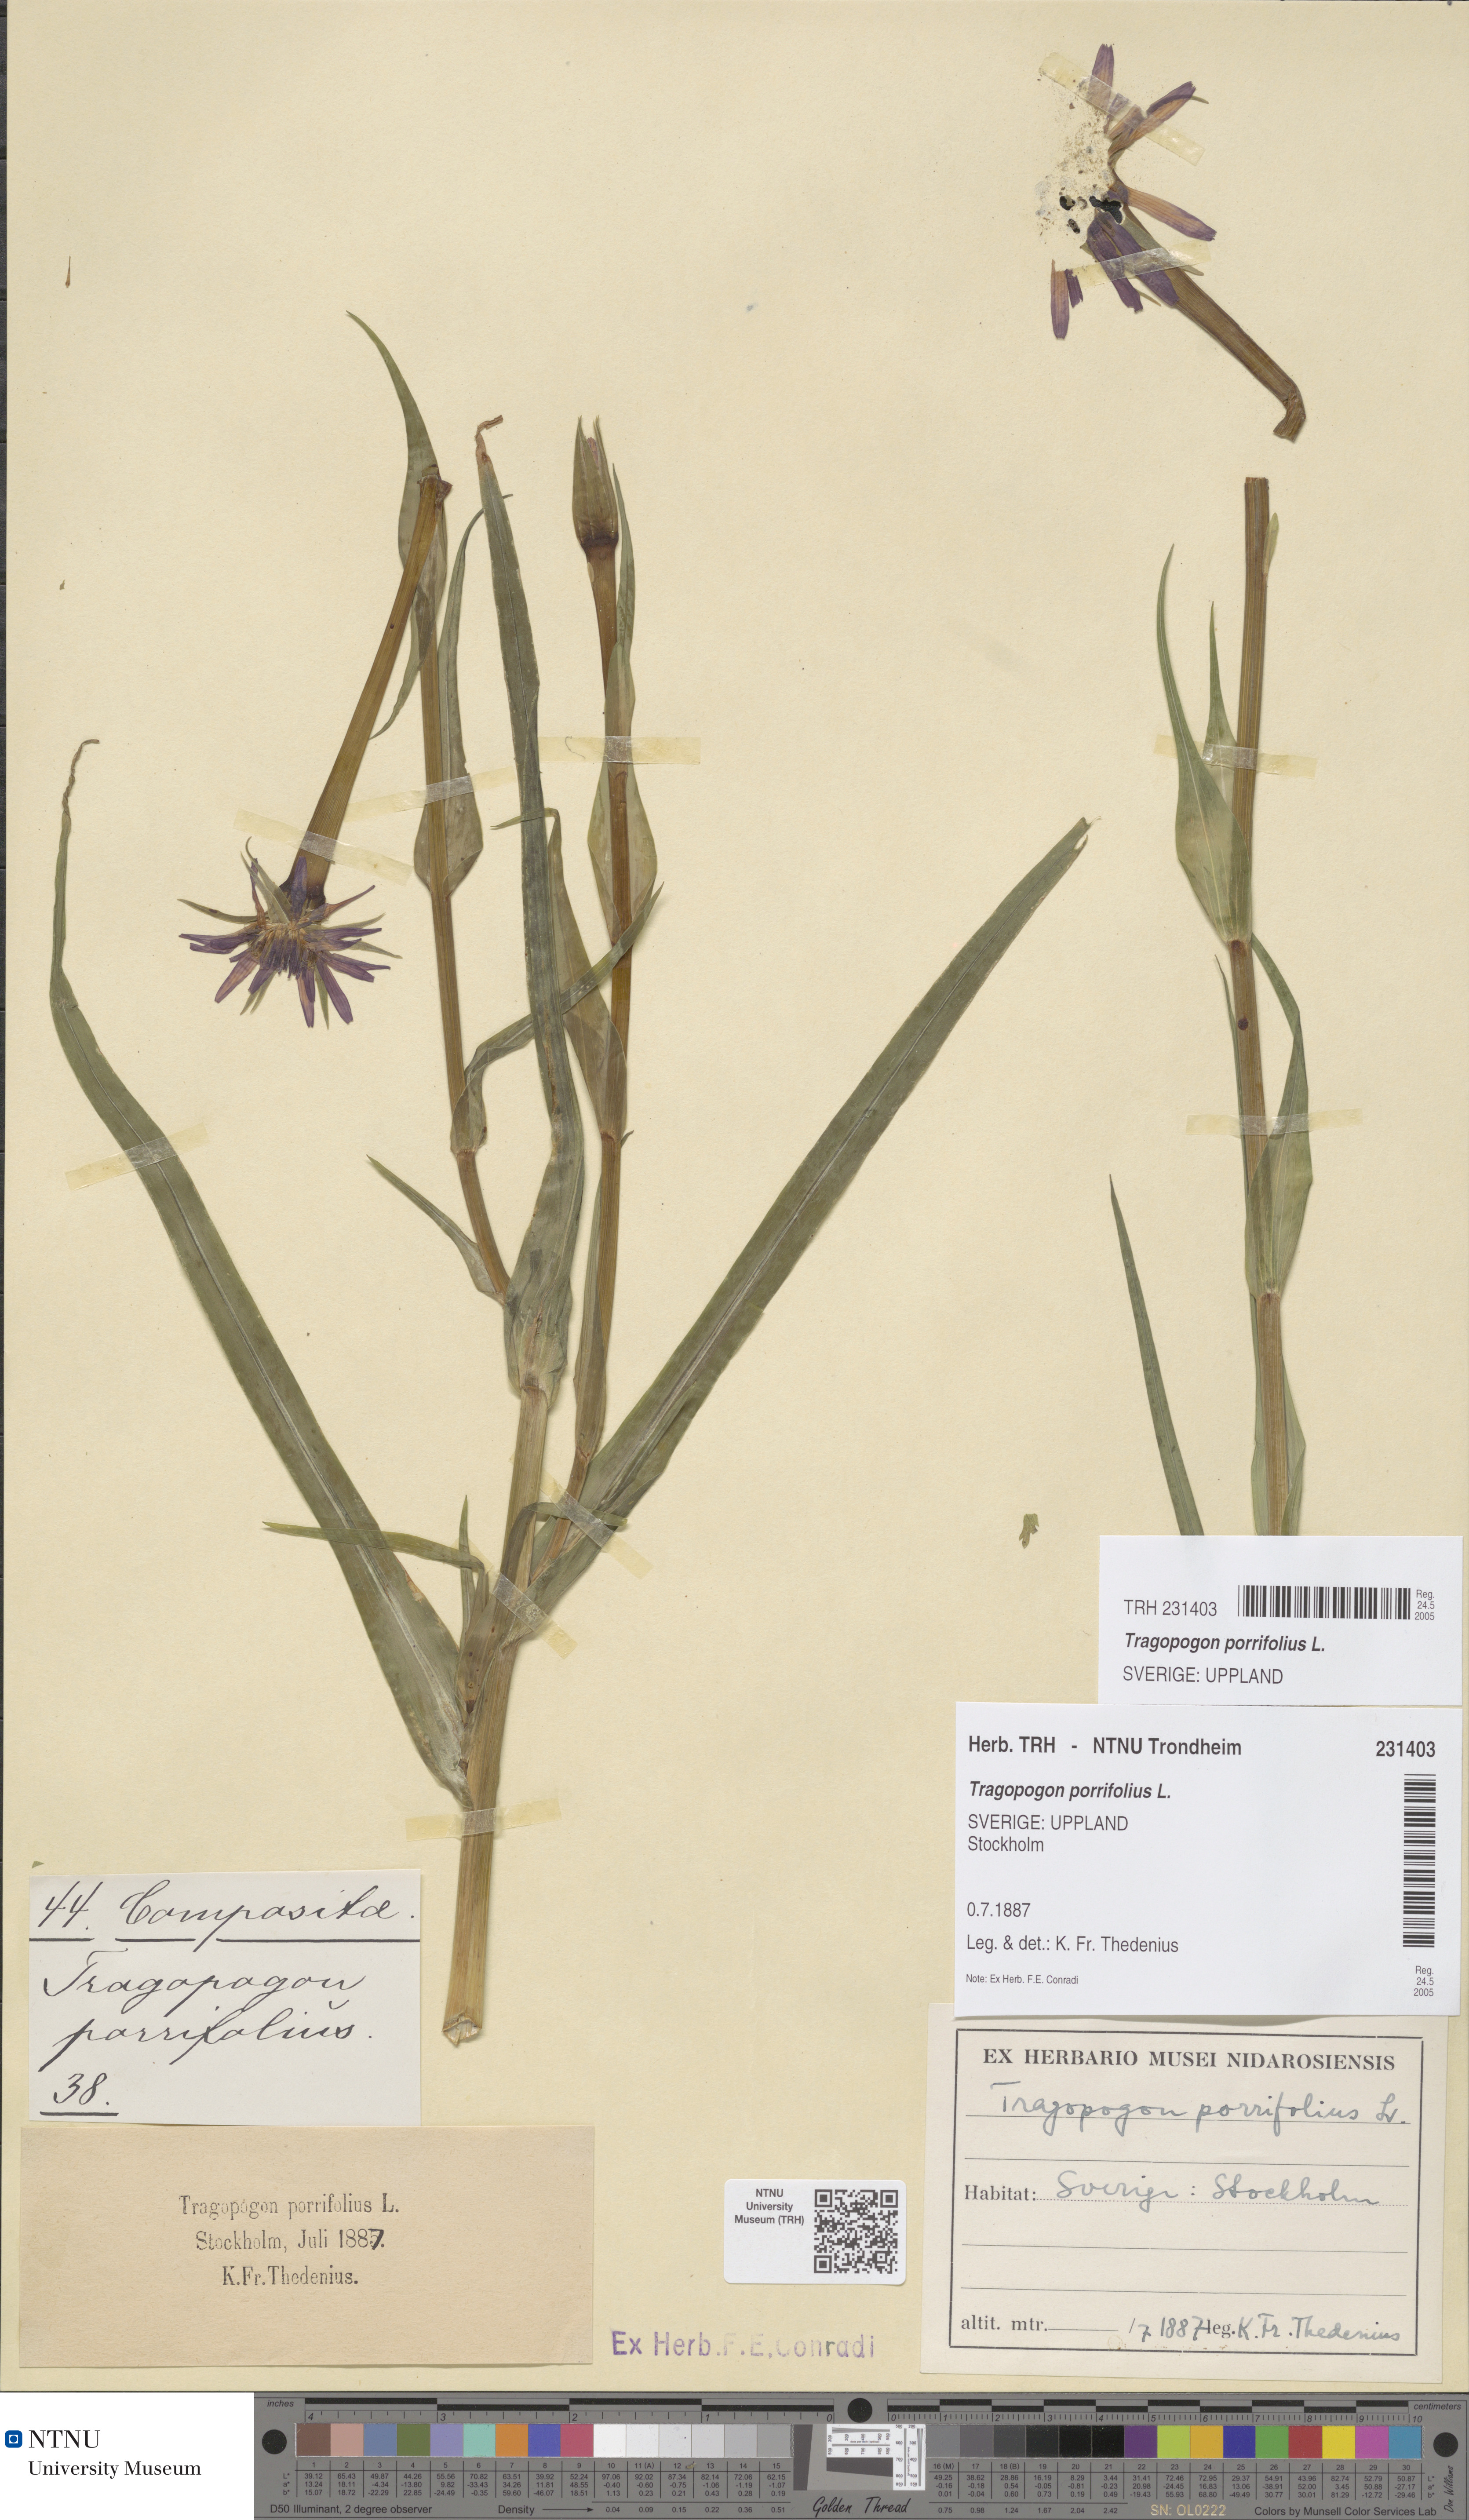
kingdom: Plantae
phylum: Tracheophyta
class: Magnoliopsida
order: Asterales
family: Asteraceae
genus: Tragopogon
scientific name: Tragopogon porrifolius
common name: Salsify
